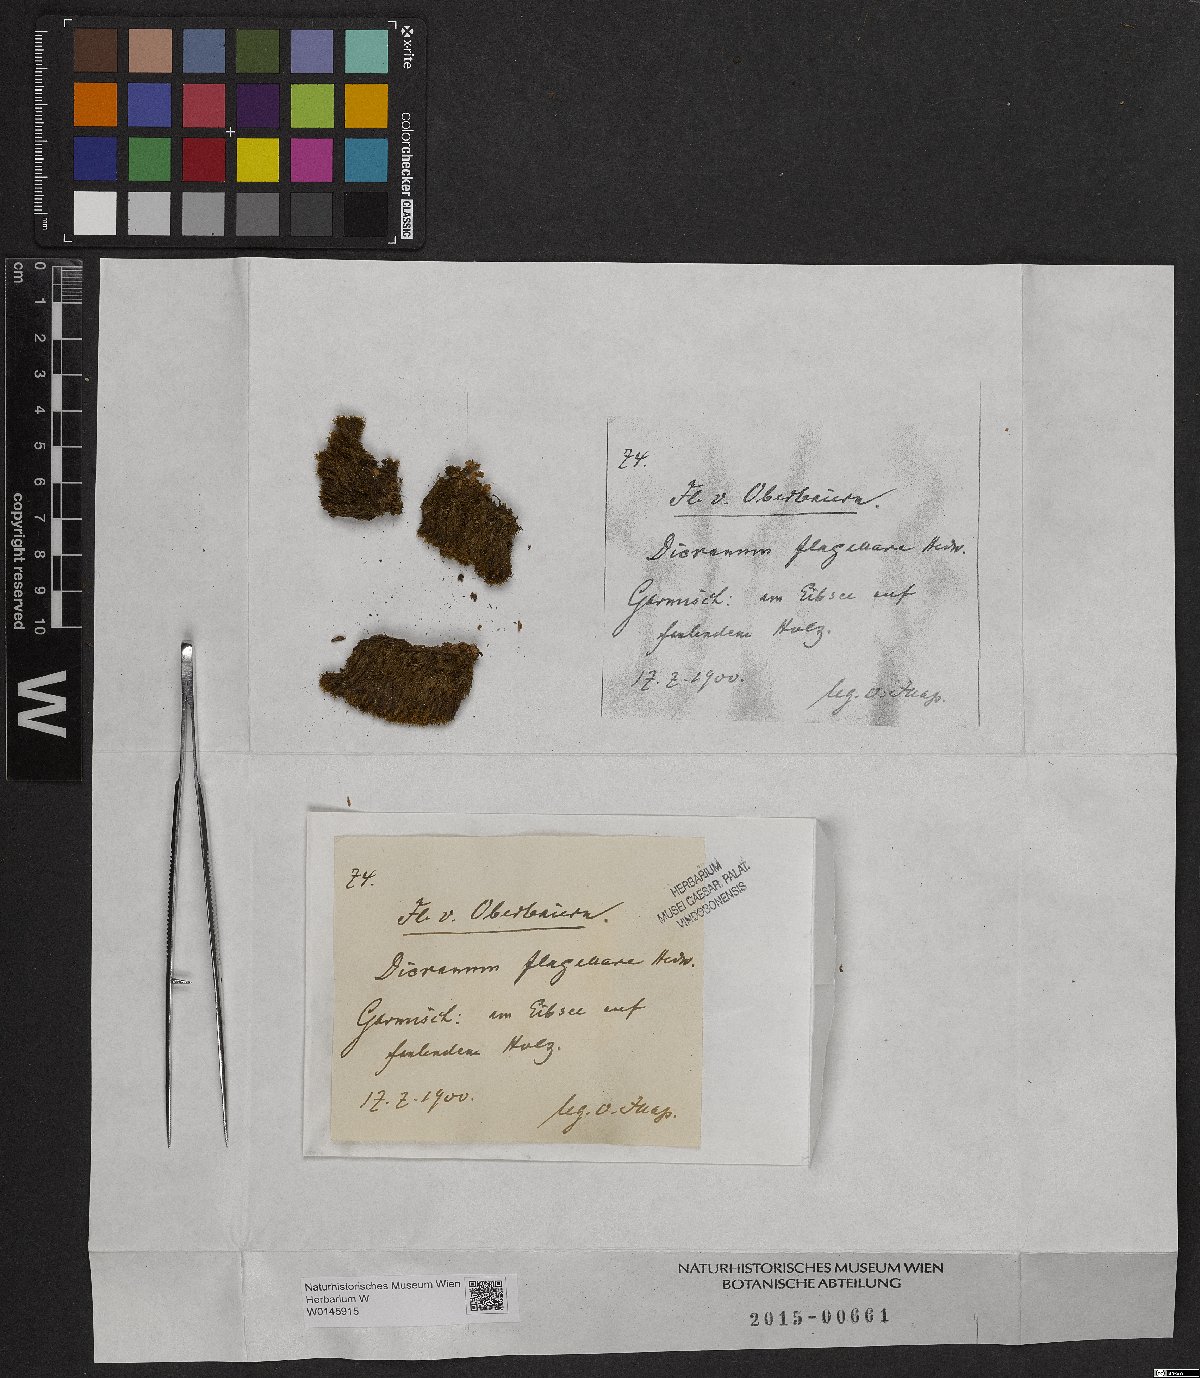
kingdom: Plantae
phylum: Bryophyta
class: Bryopsida
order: Dicranales
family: Dicranaceae
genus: Orthodicranum
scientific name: Orthodicranum flagellare
